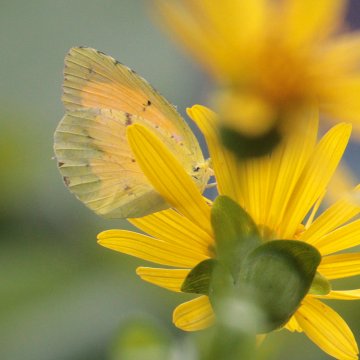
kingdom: Animalia
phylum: Arthropoda
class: Insecta
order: Lepidoptera
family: Pieridae
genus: Abaeis
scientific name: Abaeis nicippe
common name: Sleepy Orange
